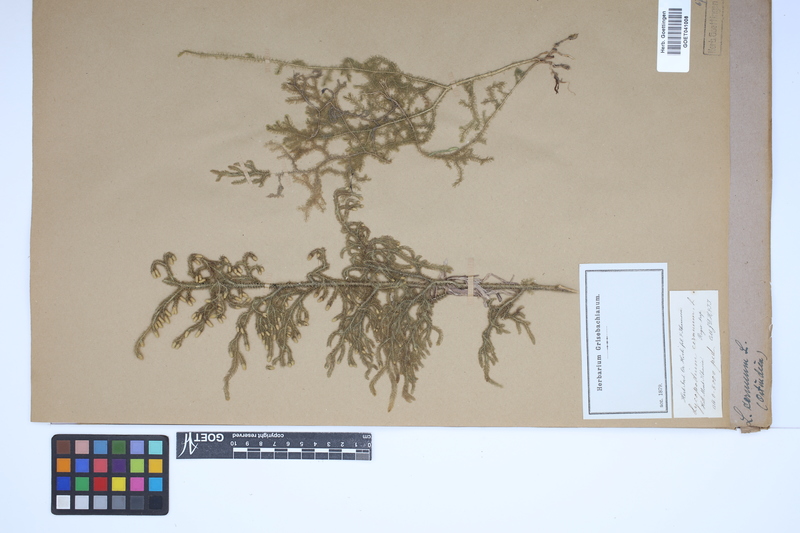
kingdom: Plantae
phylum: Tracheophyta
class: Lycopodiopsida
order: Lycopodiales
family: Lycopodiaceae
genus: Palhinhaea
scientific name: Palhinhaea cernua
